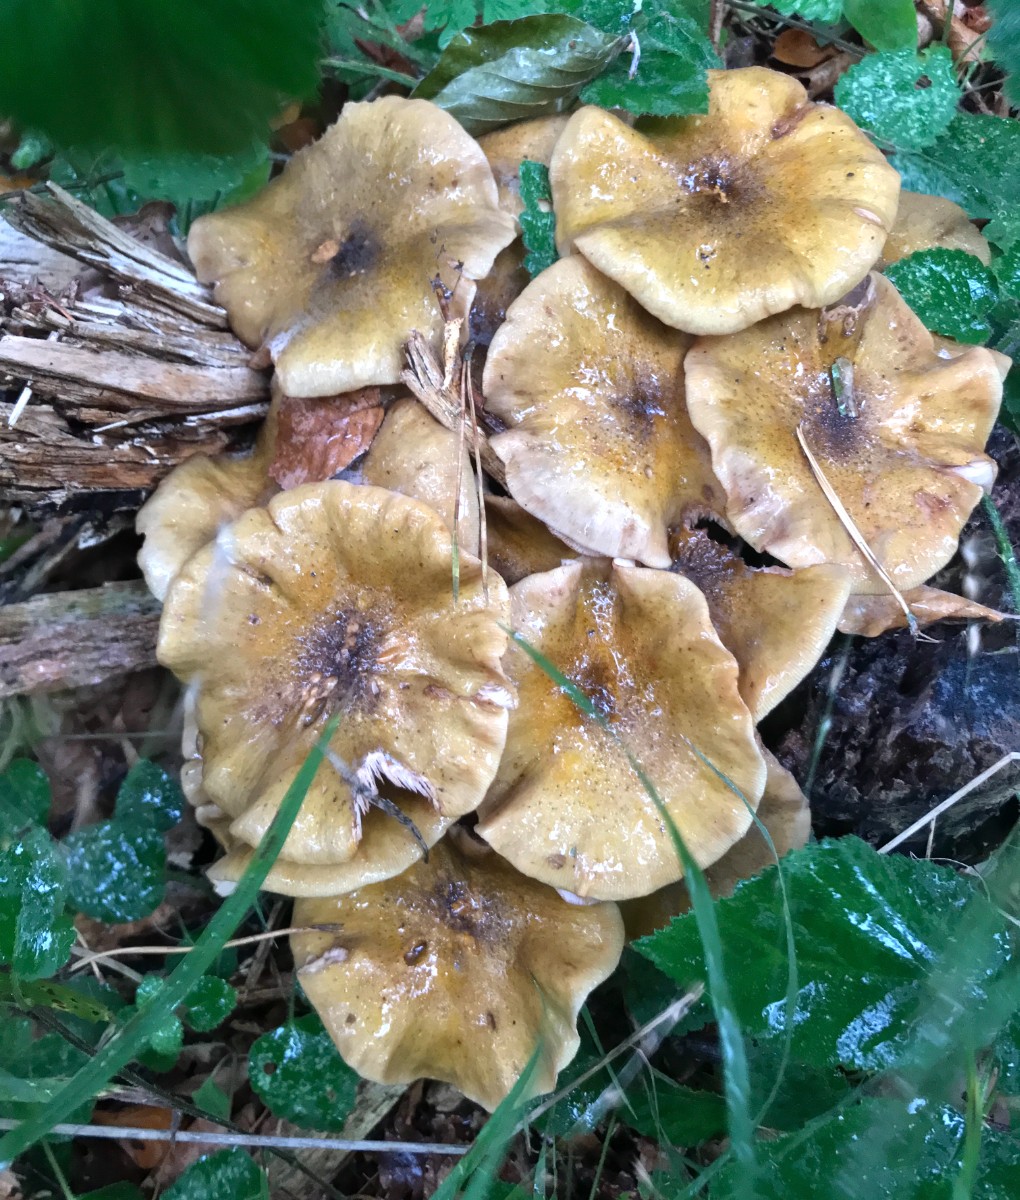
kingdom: Fungi
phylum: Basidiomycota
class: Agaricomycetes
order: Agaricales
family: Physalacriaceae
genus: Armillaria
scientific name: Armillaria mellea
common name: ægte honningsvamp
